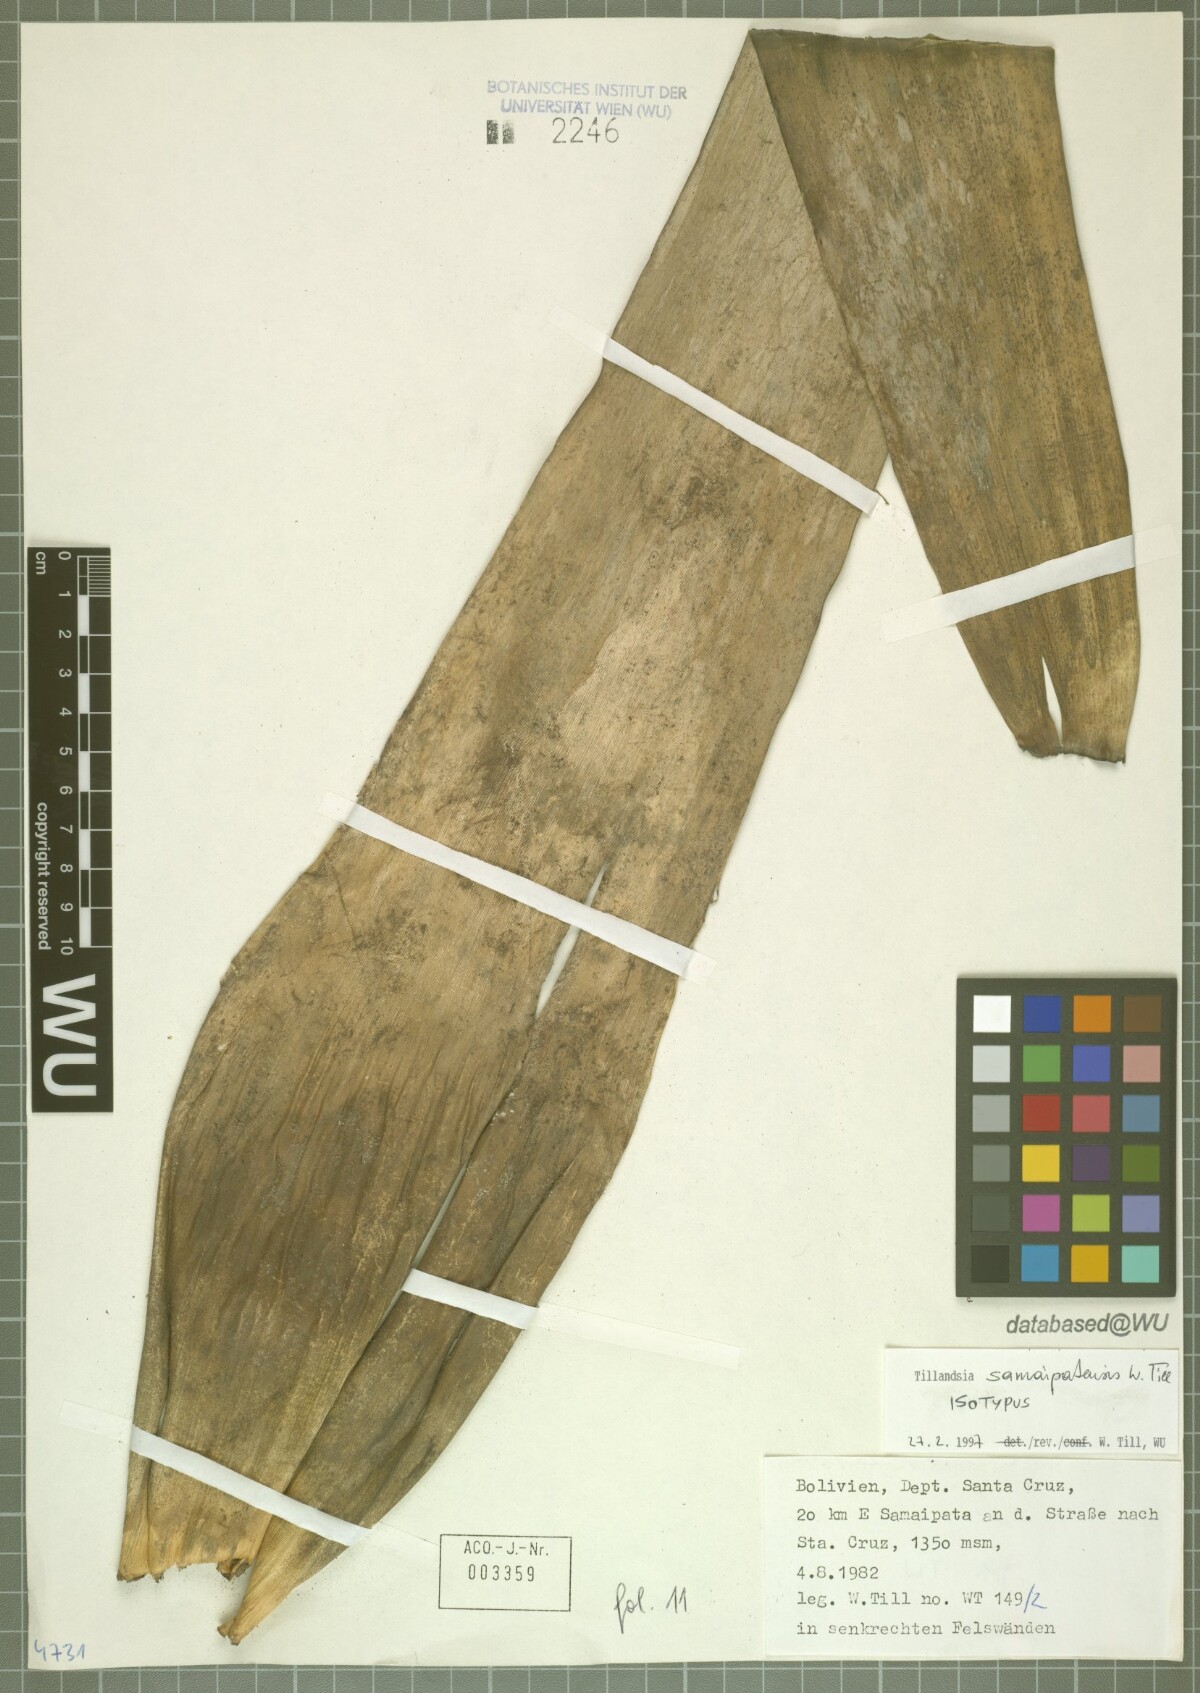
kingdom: Plantae
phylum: Tracheophyta
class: Liliopsida
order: Poales
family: Bromeliaceae
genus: Tillandsia
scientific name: Tillandsia samaipatensis
